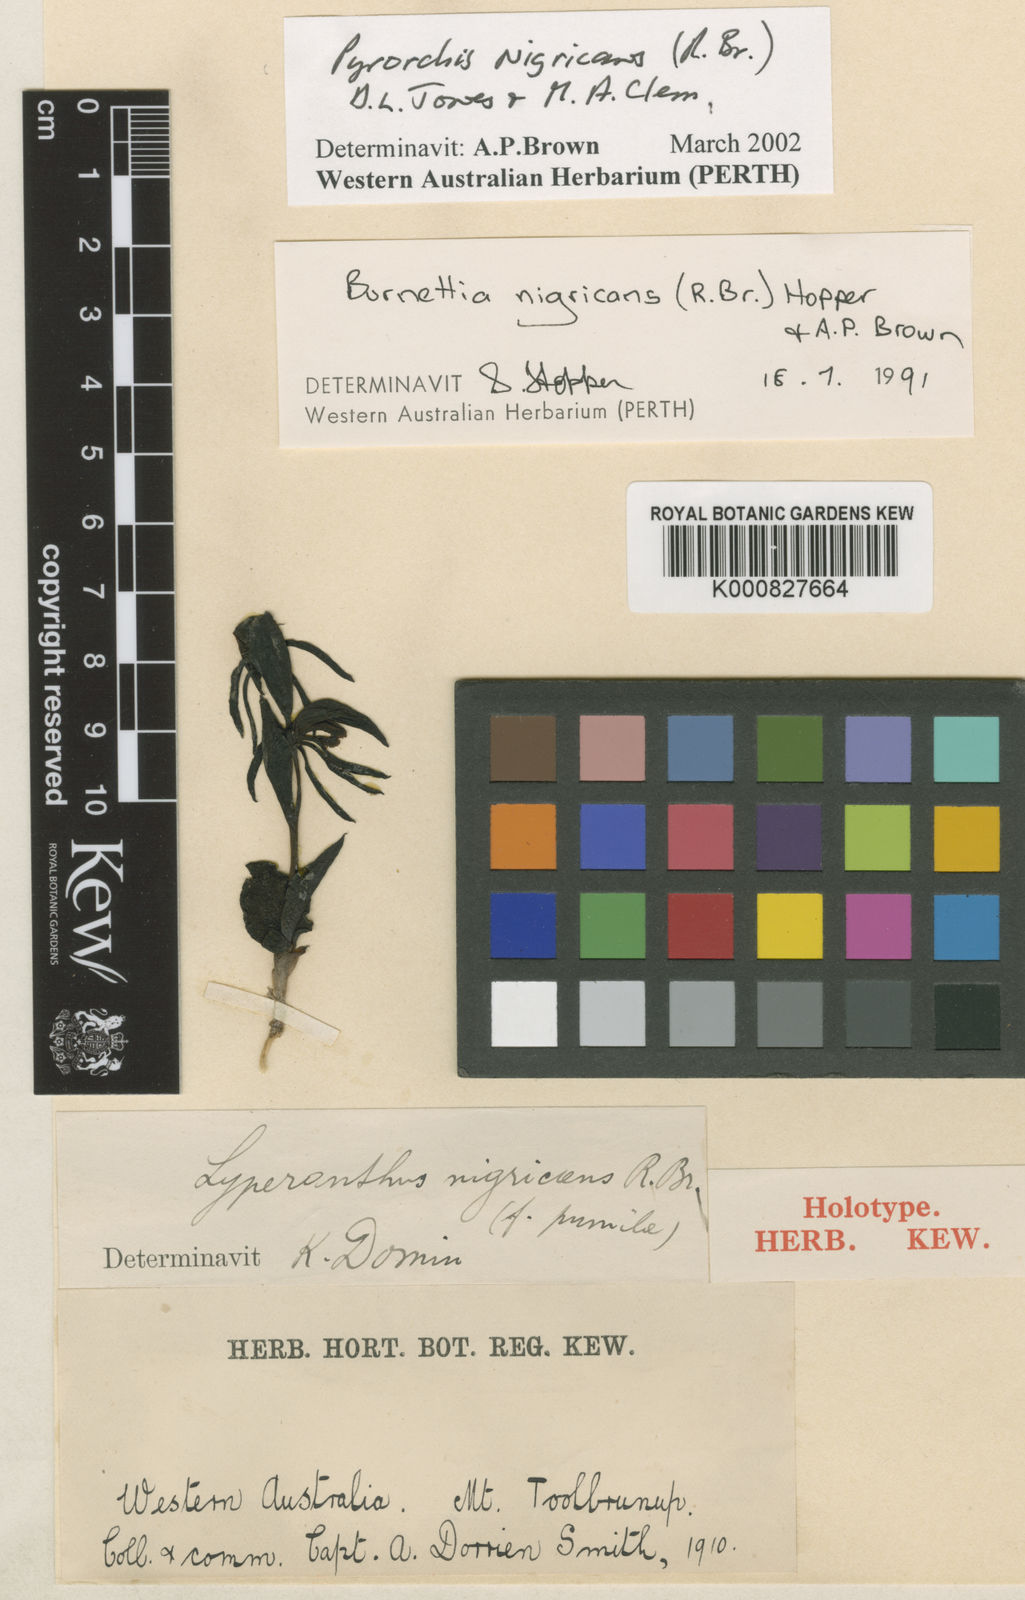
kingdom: Plantae
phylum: Tracheophyta
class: Liliopsida
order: Asparagales
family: Orchidaceae
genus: Pyrorchis
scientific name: Pyrorchis nigricans
